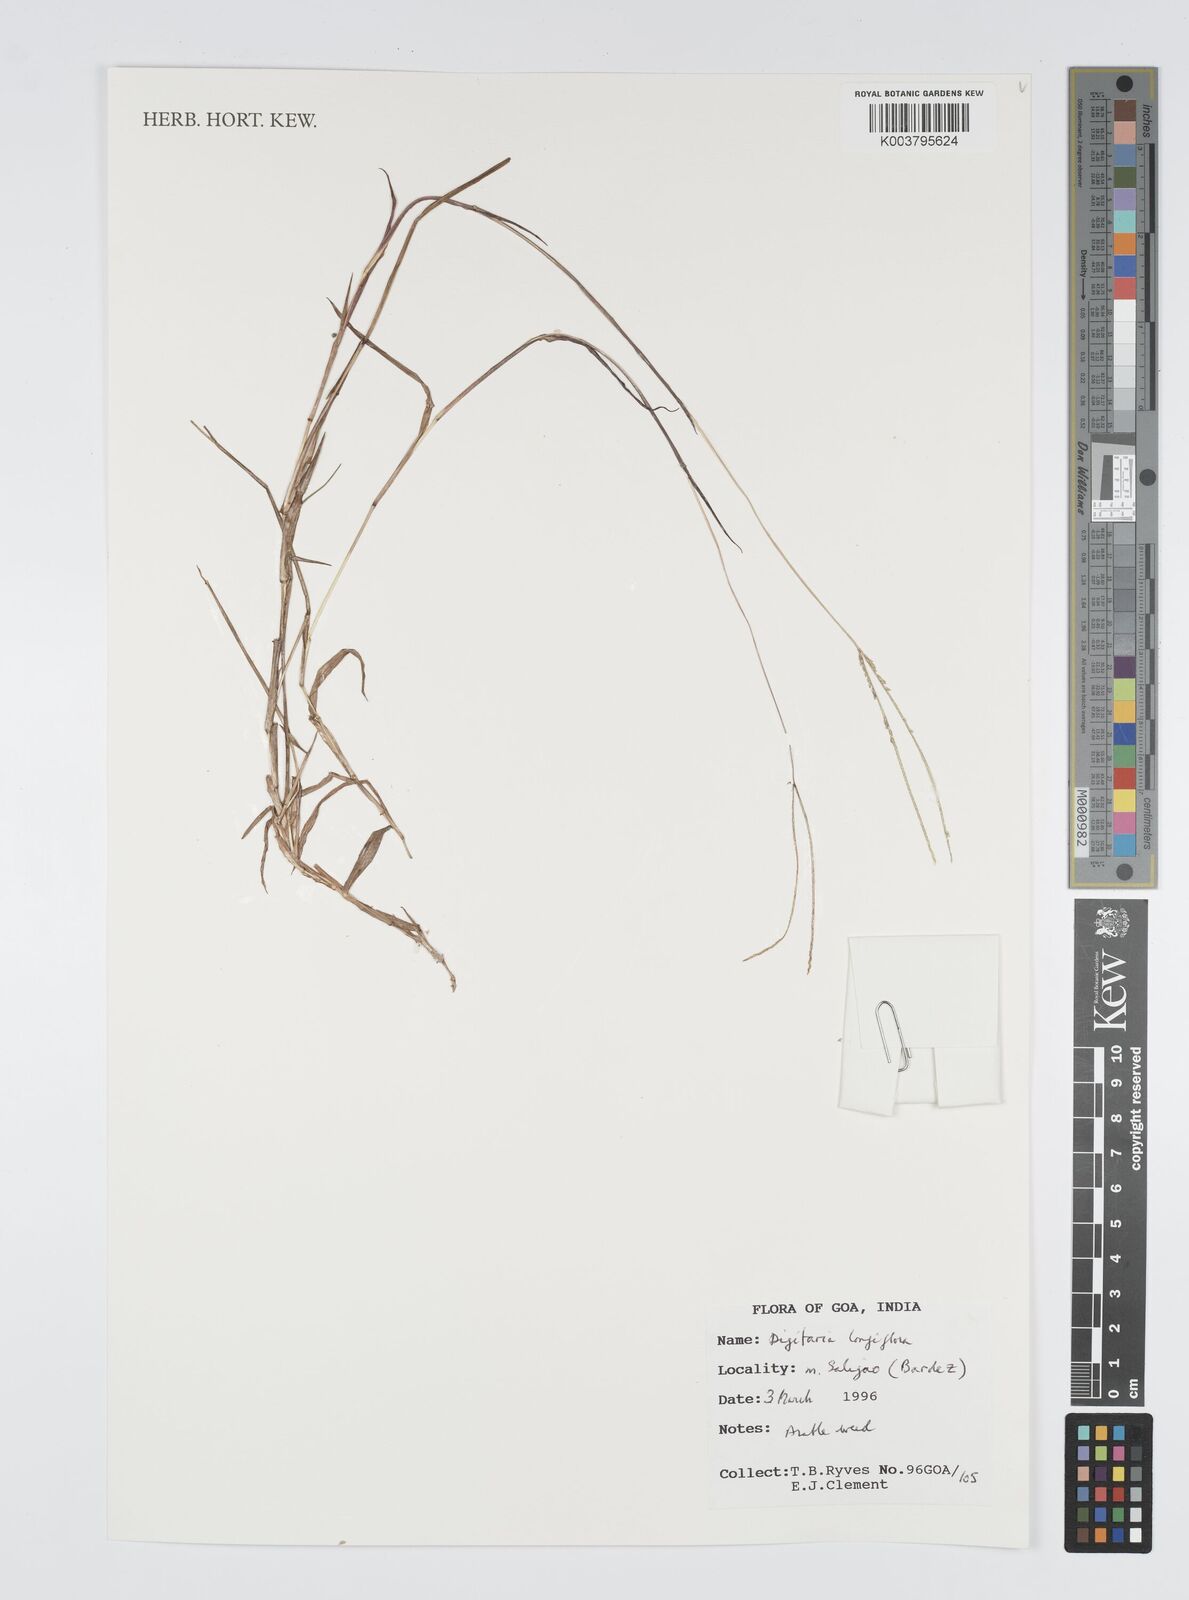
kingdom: Plantae
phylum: Tracheophyta
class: Liliopsida
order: Poales
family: Poaceae
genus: Digitaria
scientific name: Digitaria longiflora
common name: Wire crabgrass
